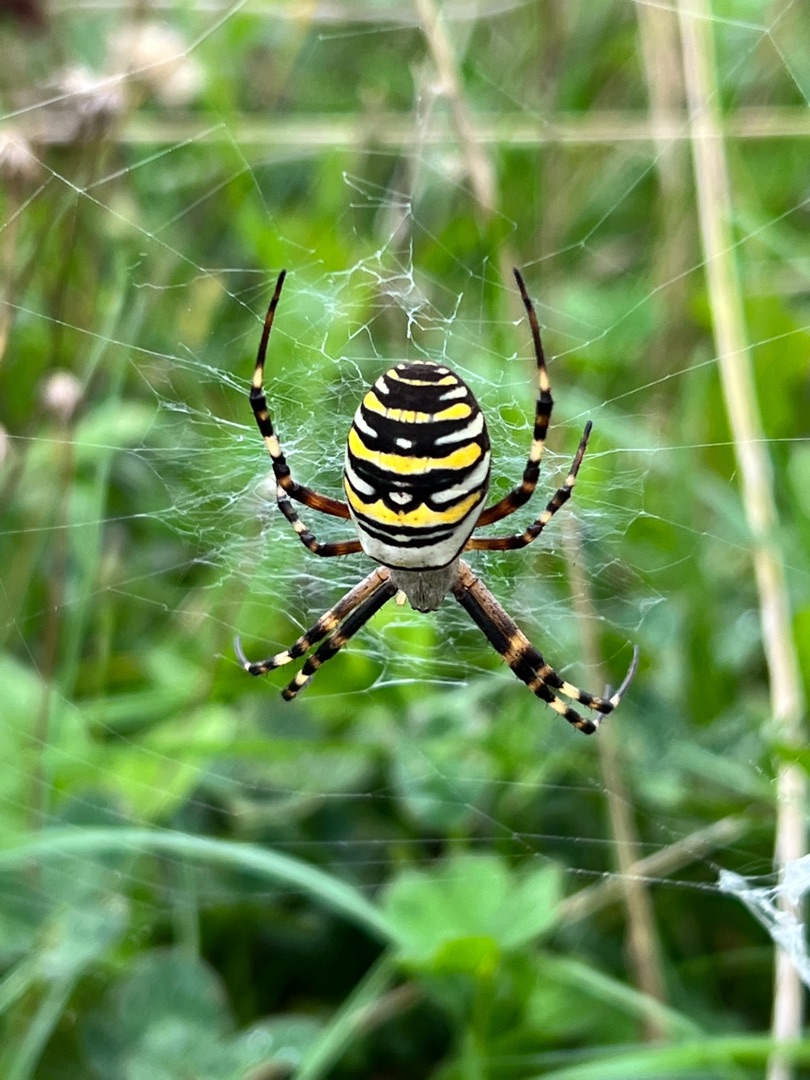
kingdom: Animalia
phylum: Arthropoda
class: Arachnida
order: Araneae
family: Araneidae
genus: Argiope
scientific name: Argiope bruennichi
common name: Hvepseedderkop
